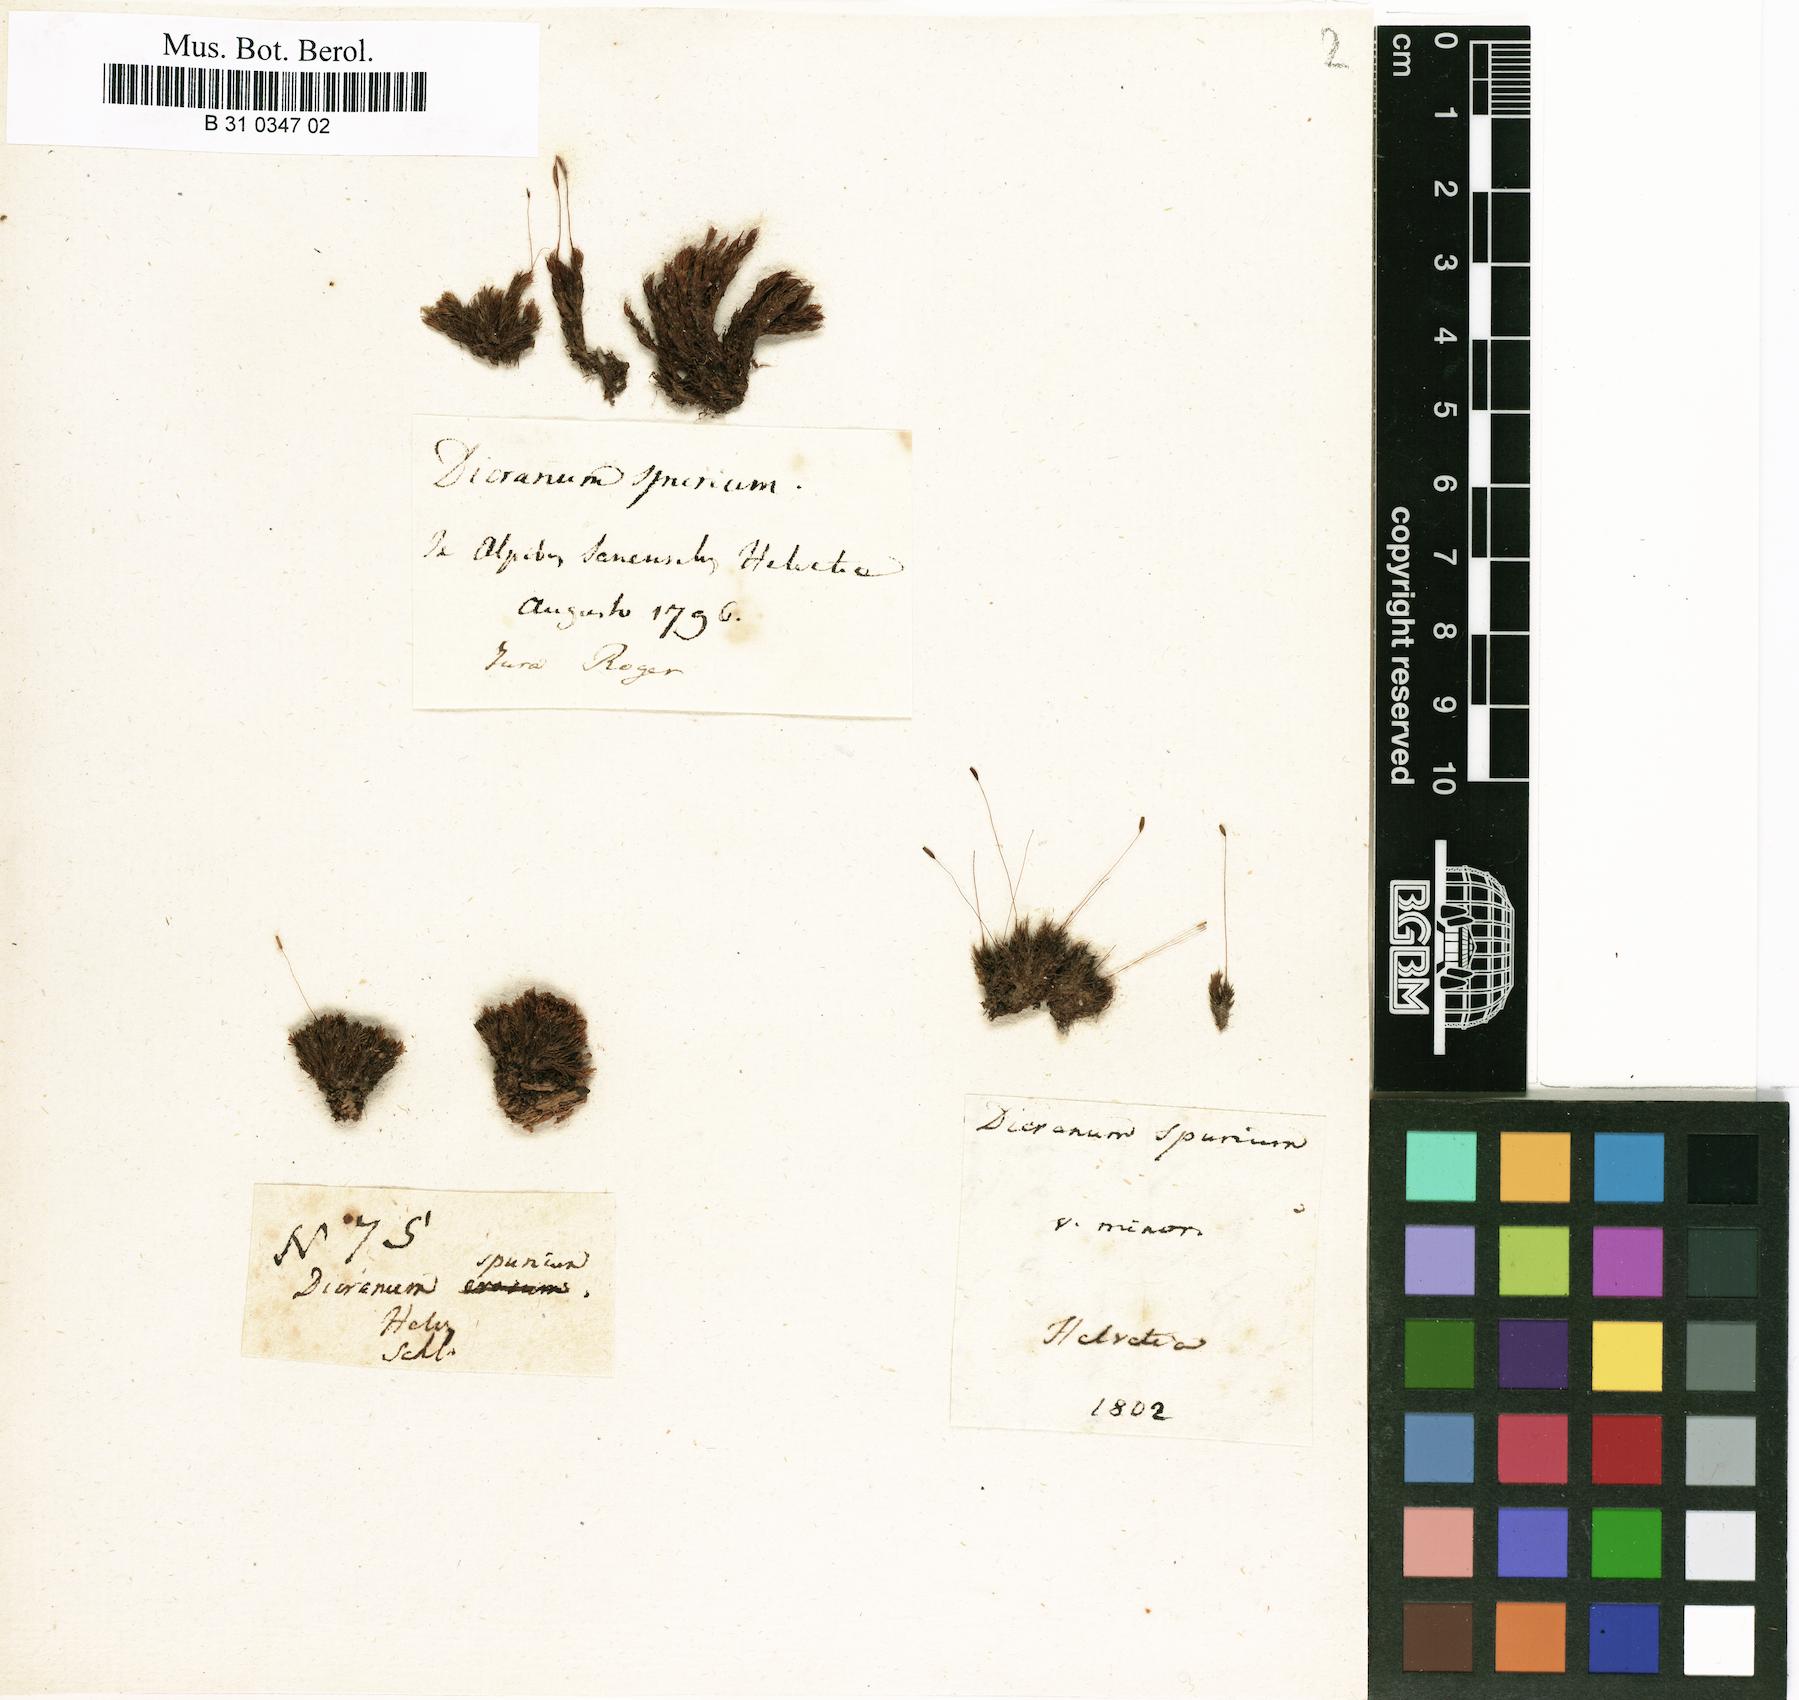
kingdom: Plantae
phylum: Bryophyta
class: Bryopsida
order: Dicranales
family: Dicranaceae
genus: Dicranum
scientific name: Dicranum spurium
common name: Spurred broom moss
